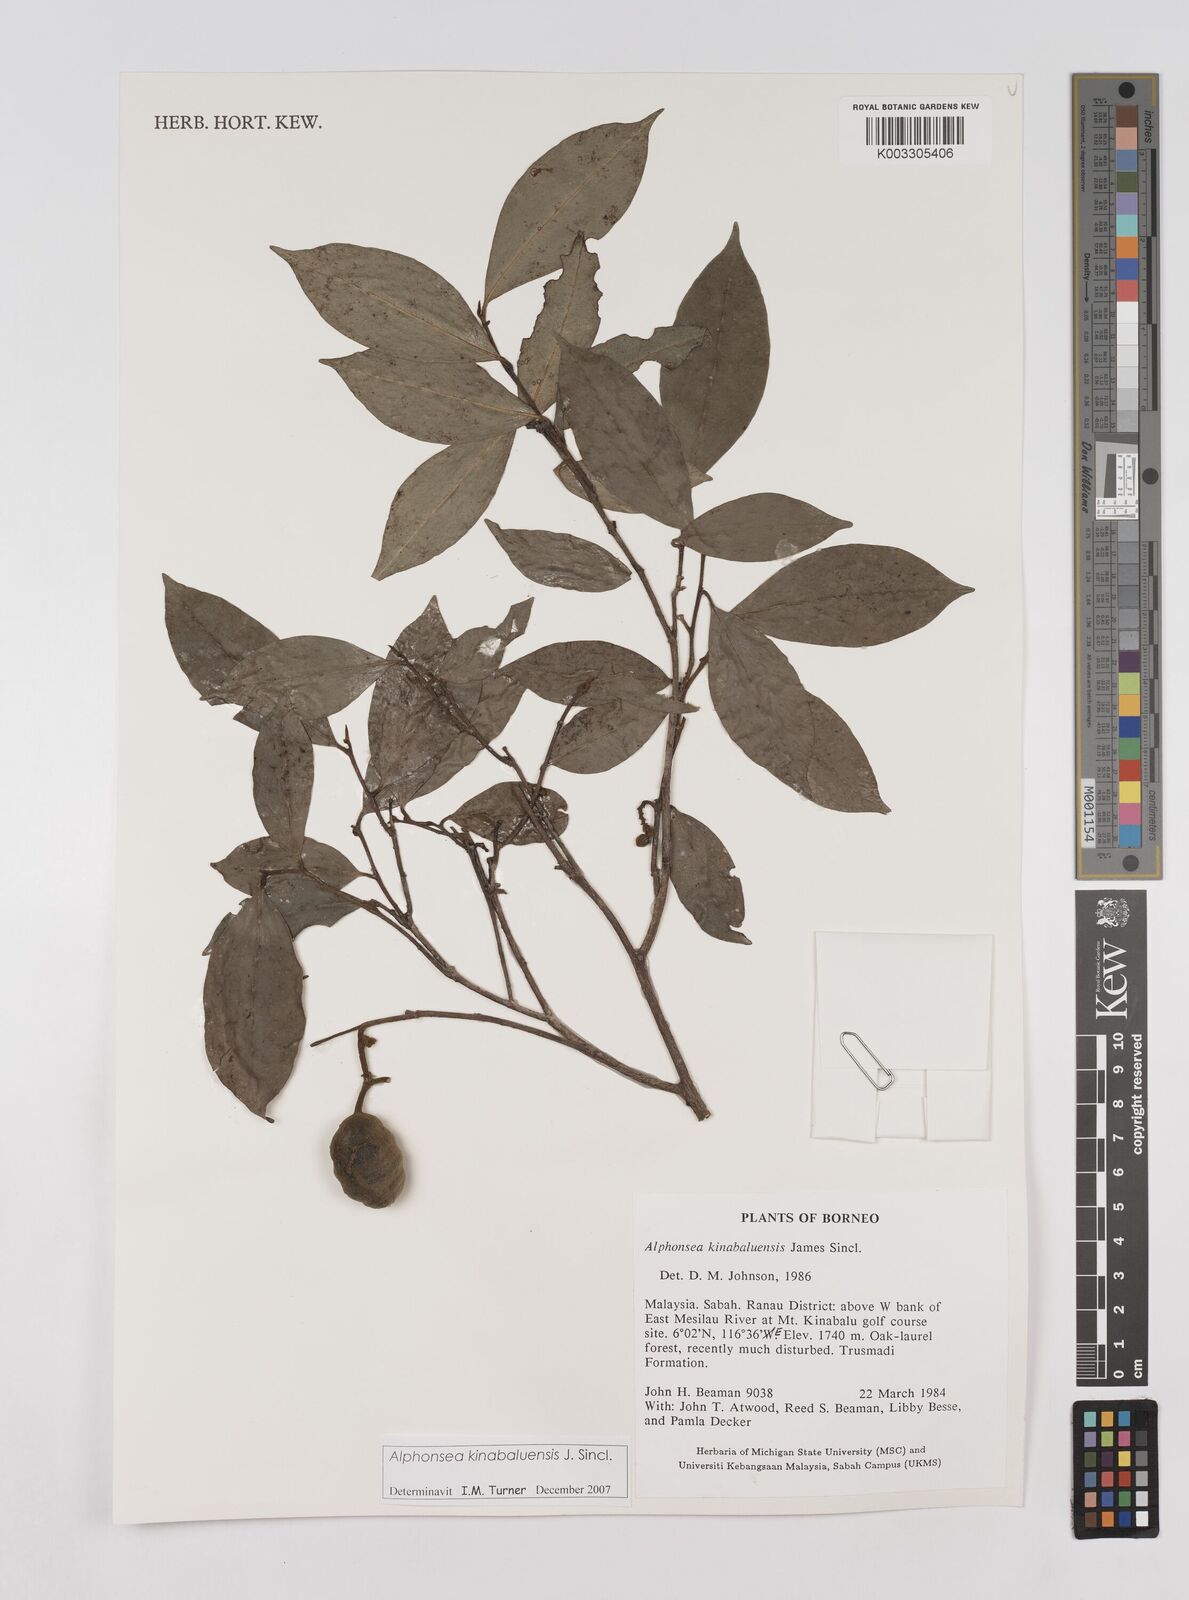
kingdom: Plantae
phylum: Tracheophyta
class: Magnoliopsida
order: Magnoliales
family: Annonaceae
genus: Alphonsea
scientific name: Alphonsea kinabaluensis
